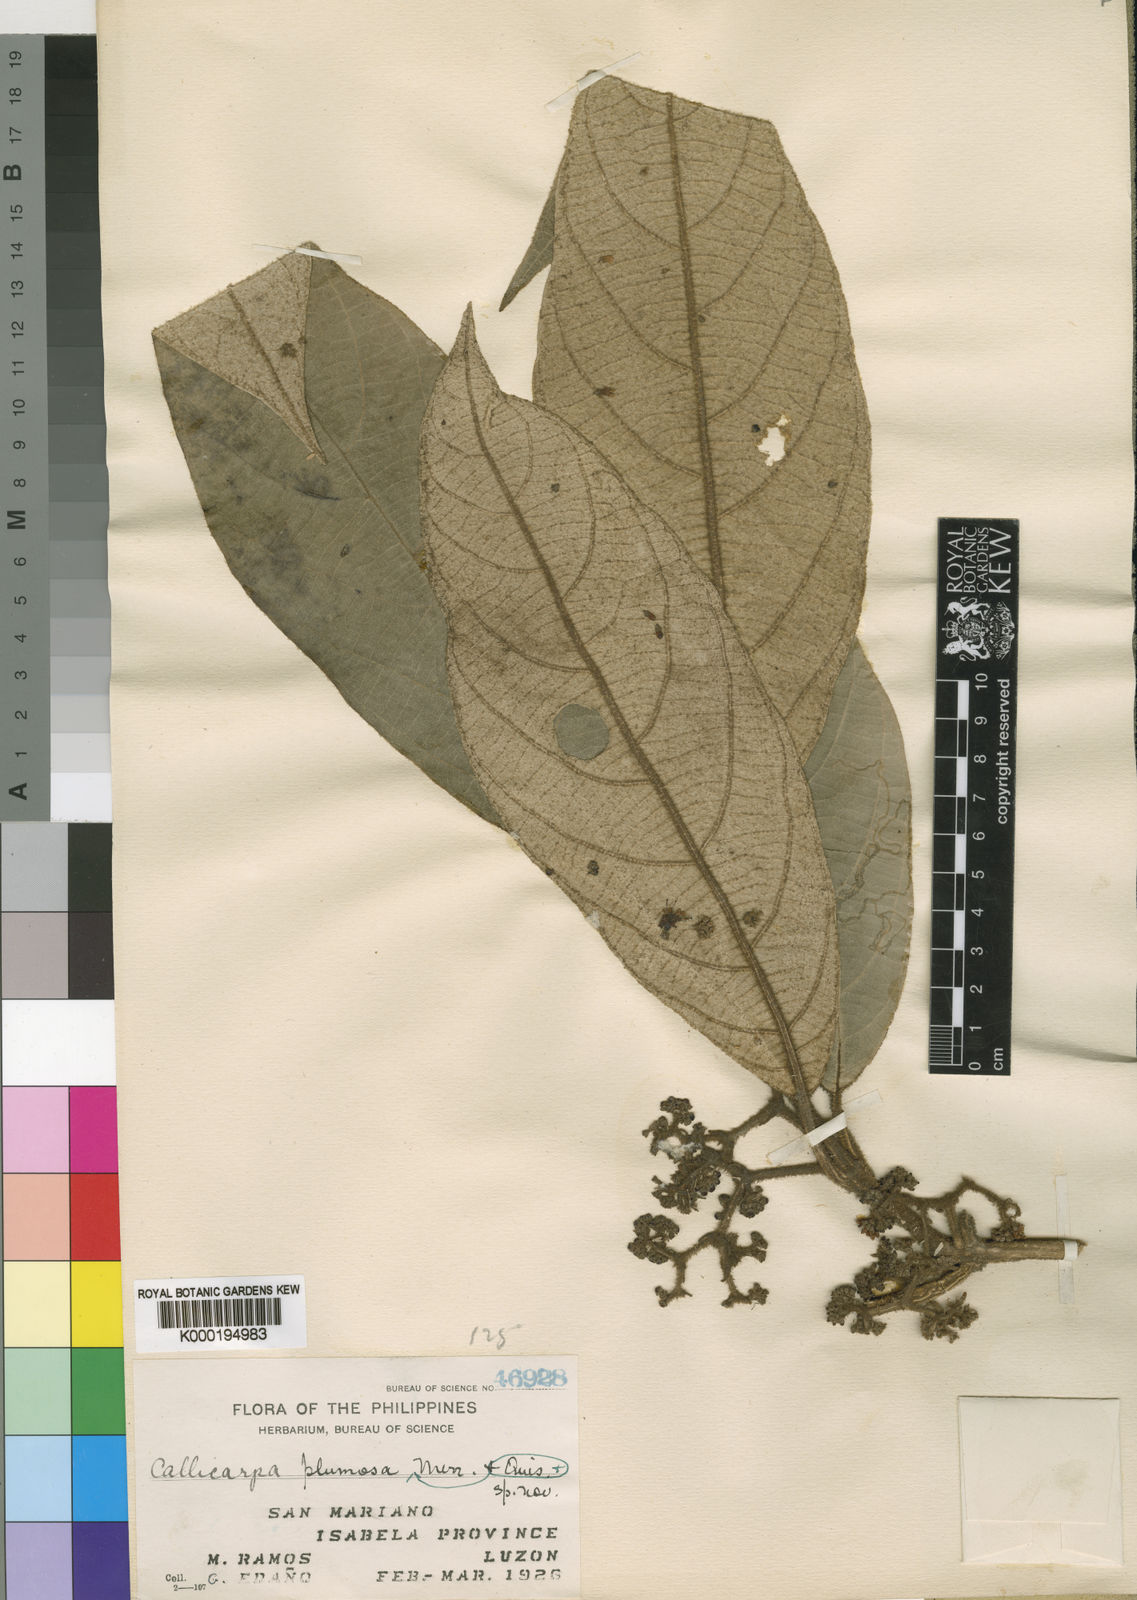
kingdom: Plantae
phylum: Tracheophyta
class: Magnoliopsida
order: Lamiales
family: Lamiaceae
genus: Callicarpa
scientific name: Callicarpa plumosa
